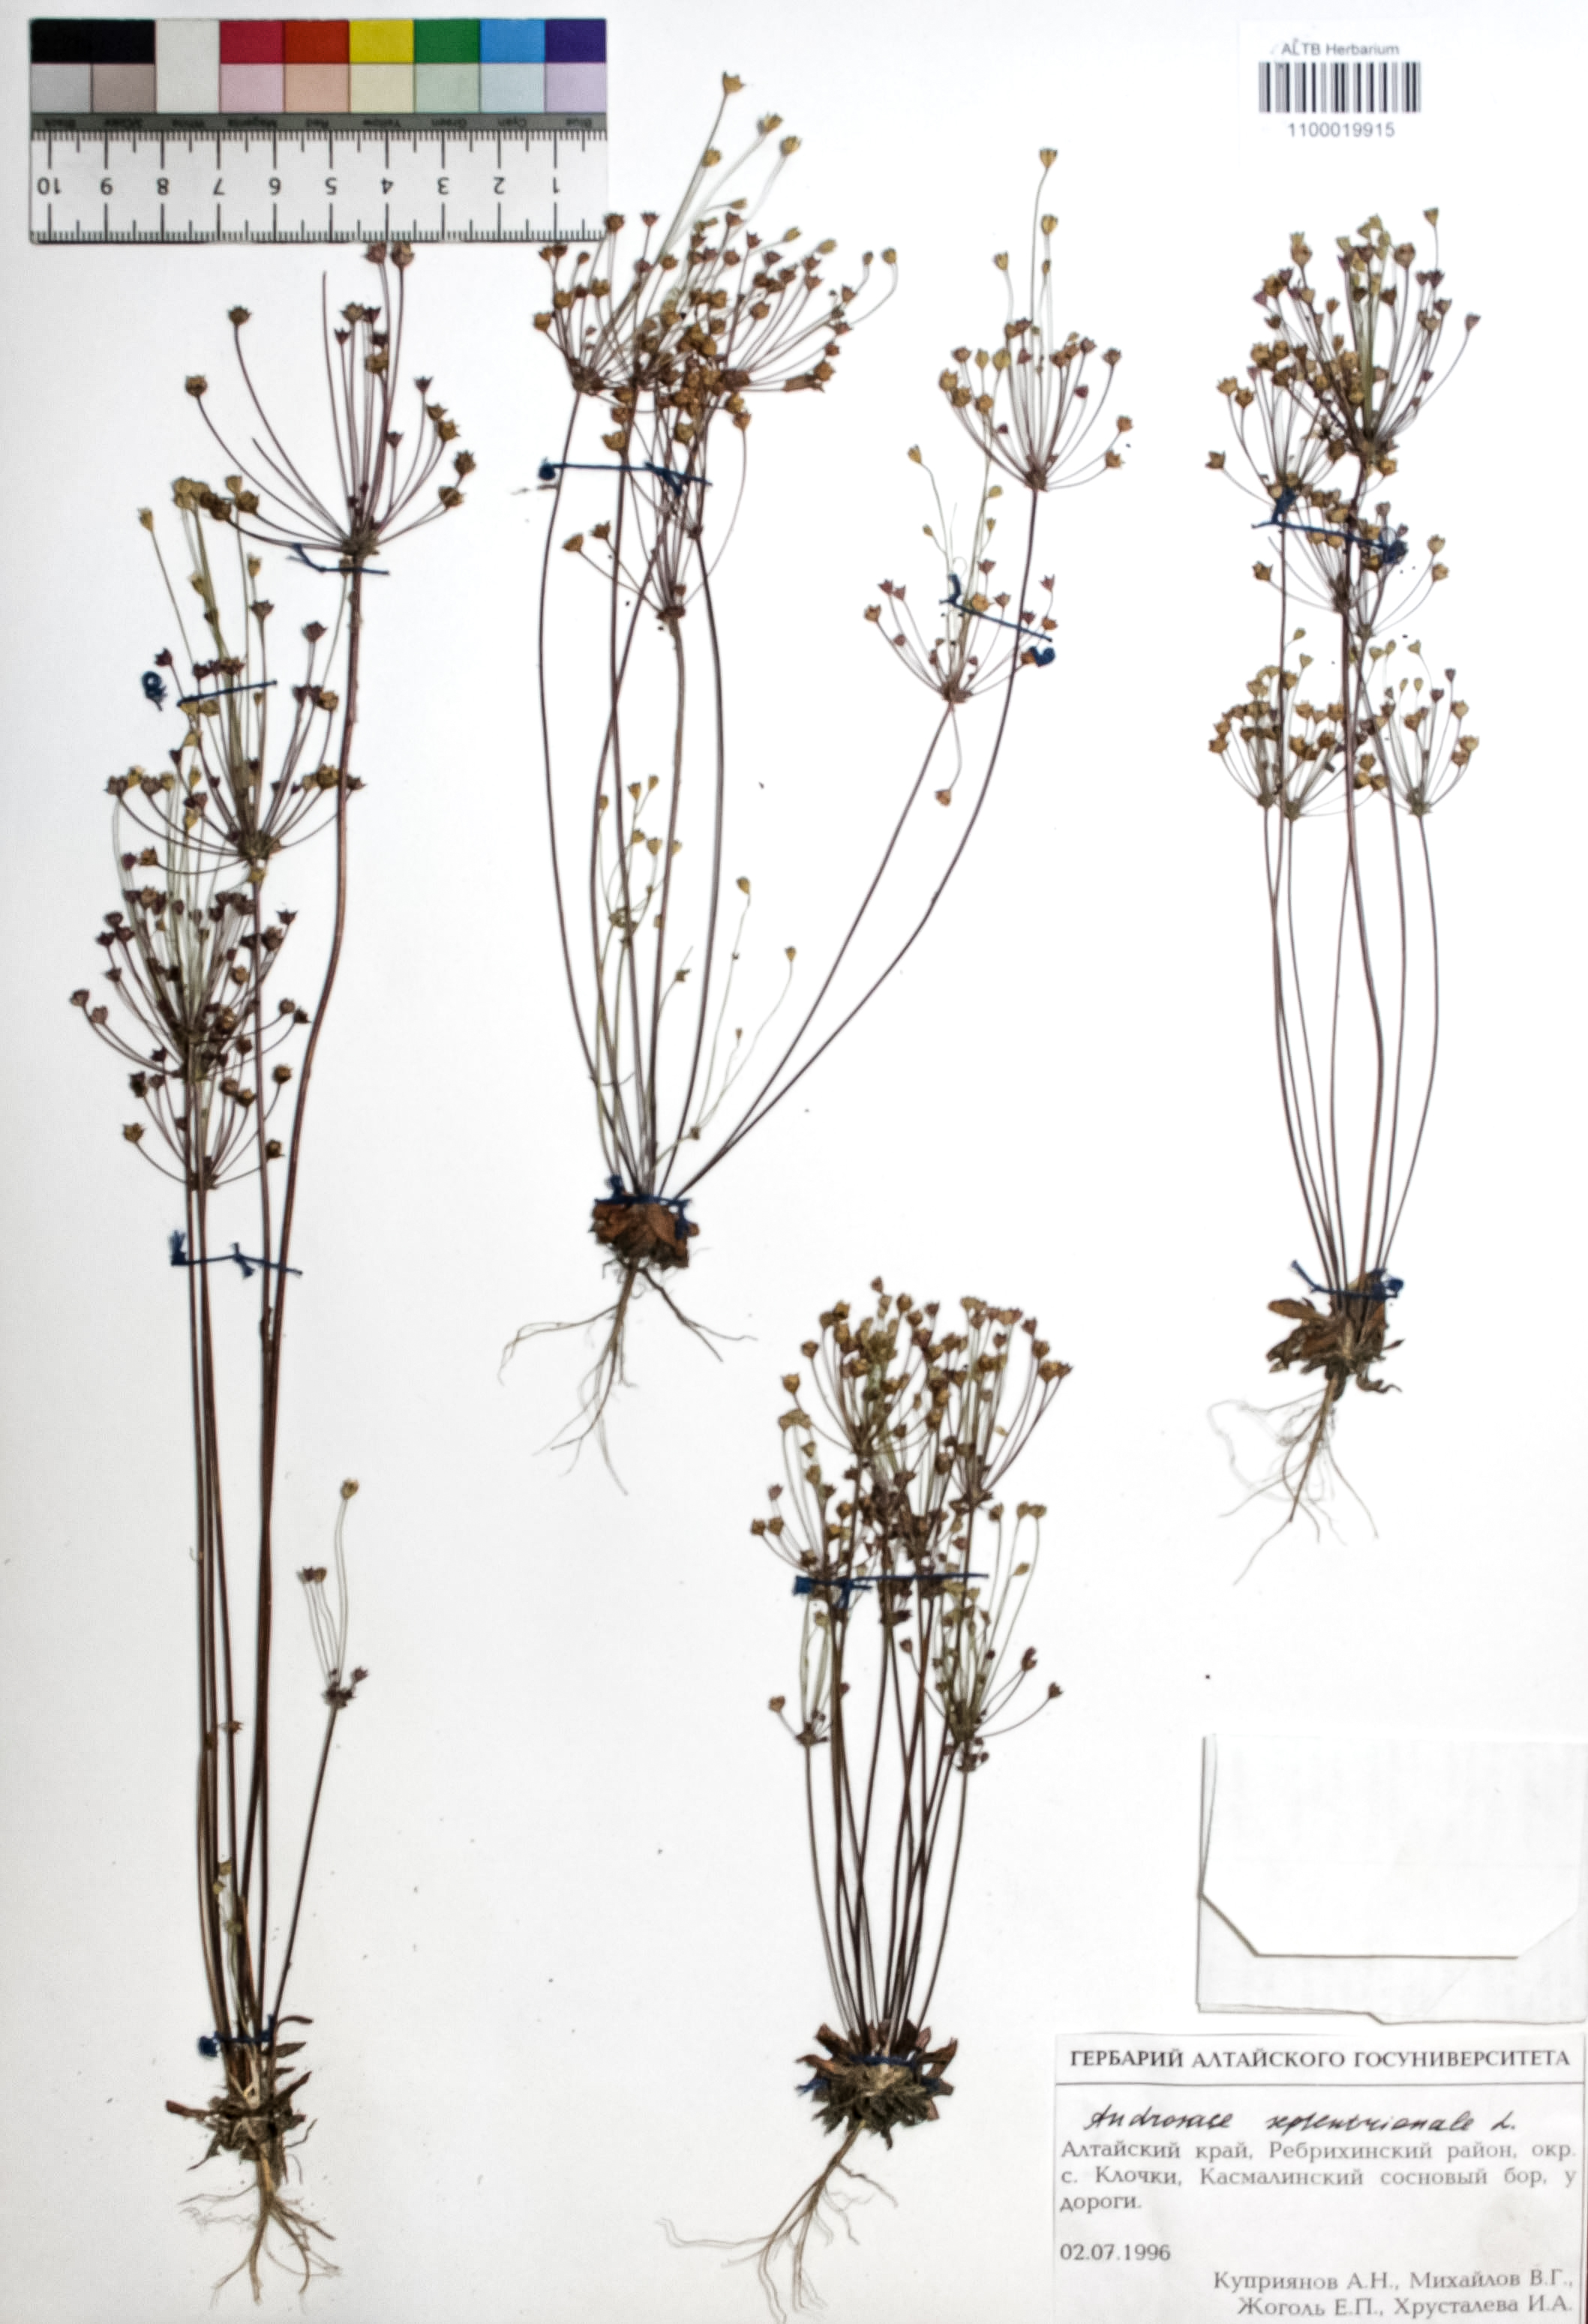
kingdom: Plantae
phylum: Tracheophyta
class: Magnoliopsida
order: Ericales
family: Primulaceae
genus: Androsace
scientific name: Androsace septentrionalis
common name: Hairy northern fairy-candelabra
